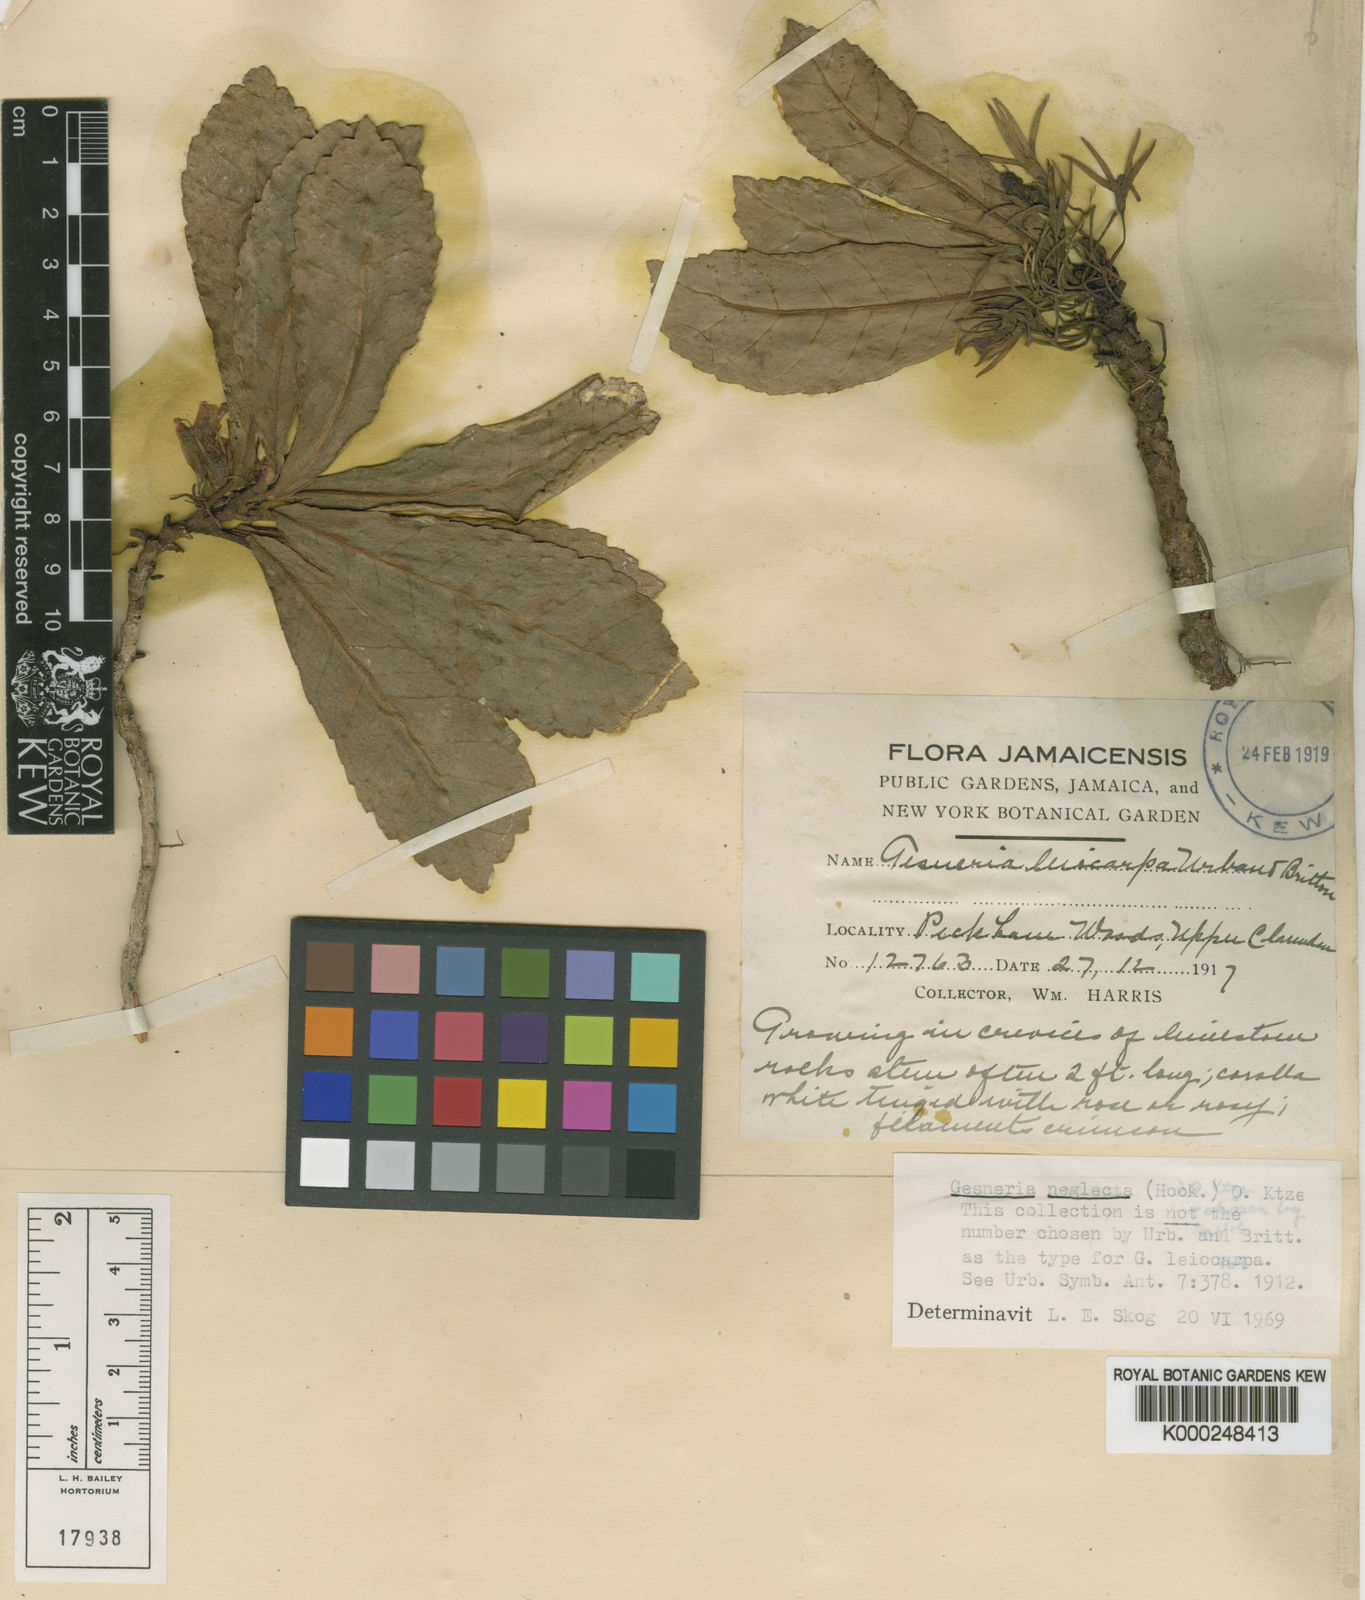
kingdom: Plantae
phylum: Tracheophyta
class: Magnoliopsida
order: Lamiales
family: Gesneriaceae
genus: Gesneria
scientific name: Gesneria pumila
